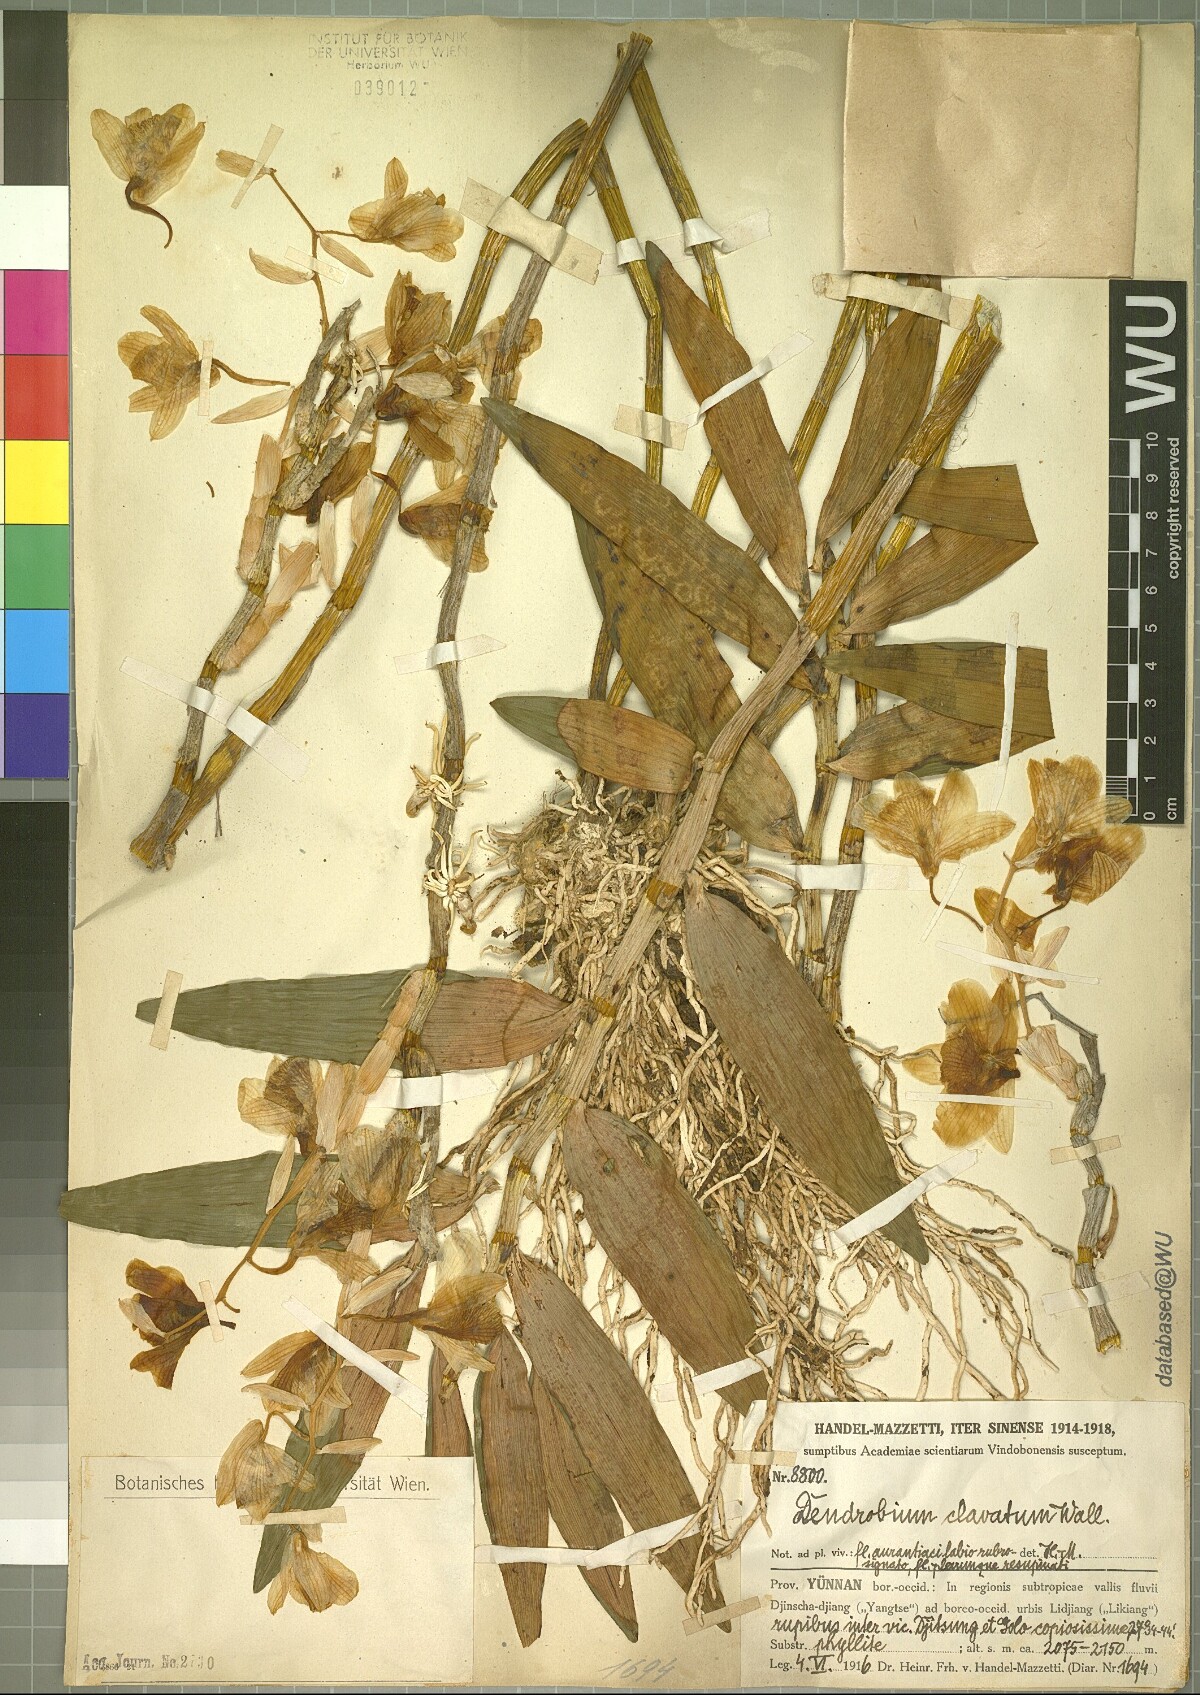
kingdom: Plantae
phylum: Tracheophyta
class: Liliopsida
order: Asparagales
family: Orchidaceae
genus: Dendrobium
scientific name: Dendrobium clavatum
